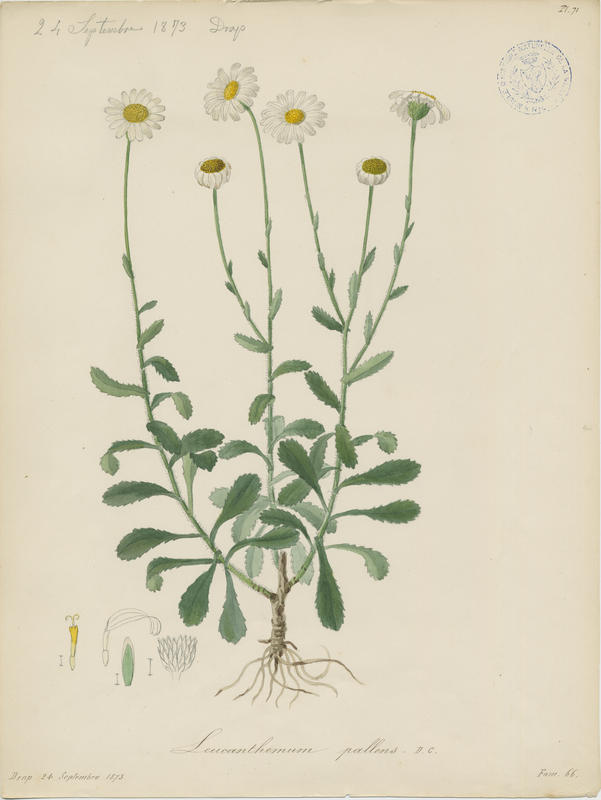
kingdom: Plantae
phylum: Tracheophyta
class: Magnoliopsida
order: Asterales
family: Asteraceae
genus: Leucanthemum
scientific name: Leucanthemum pallens
